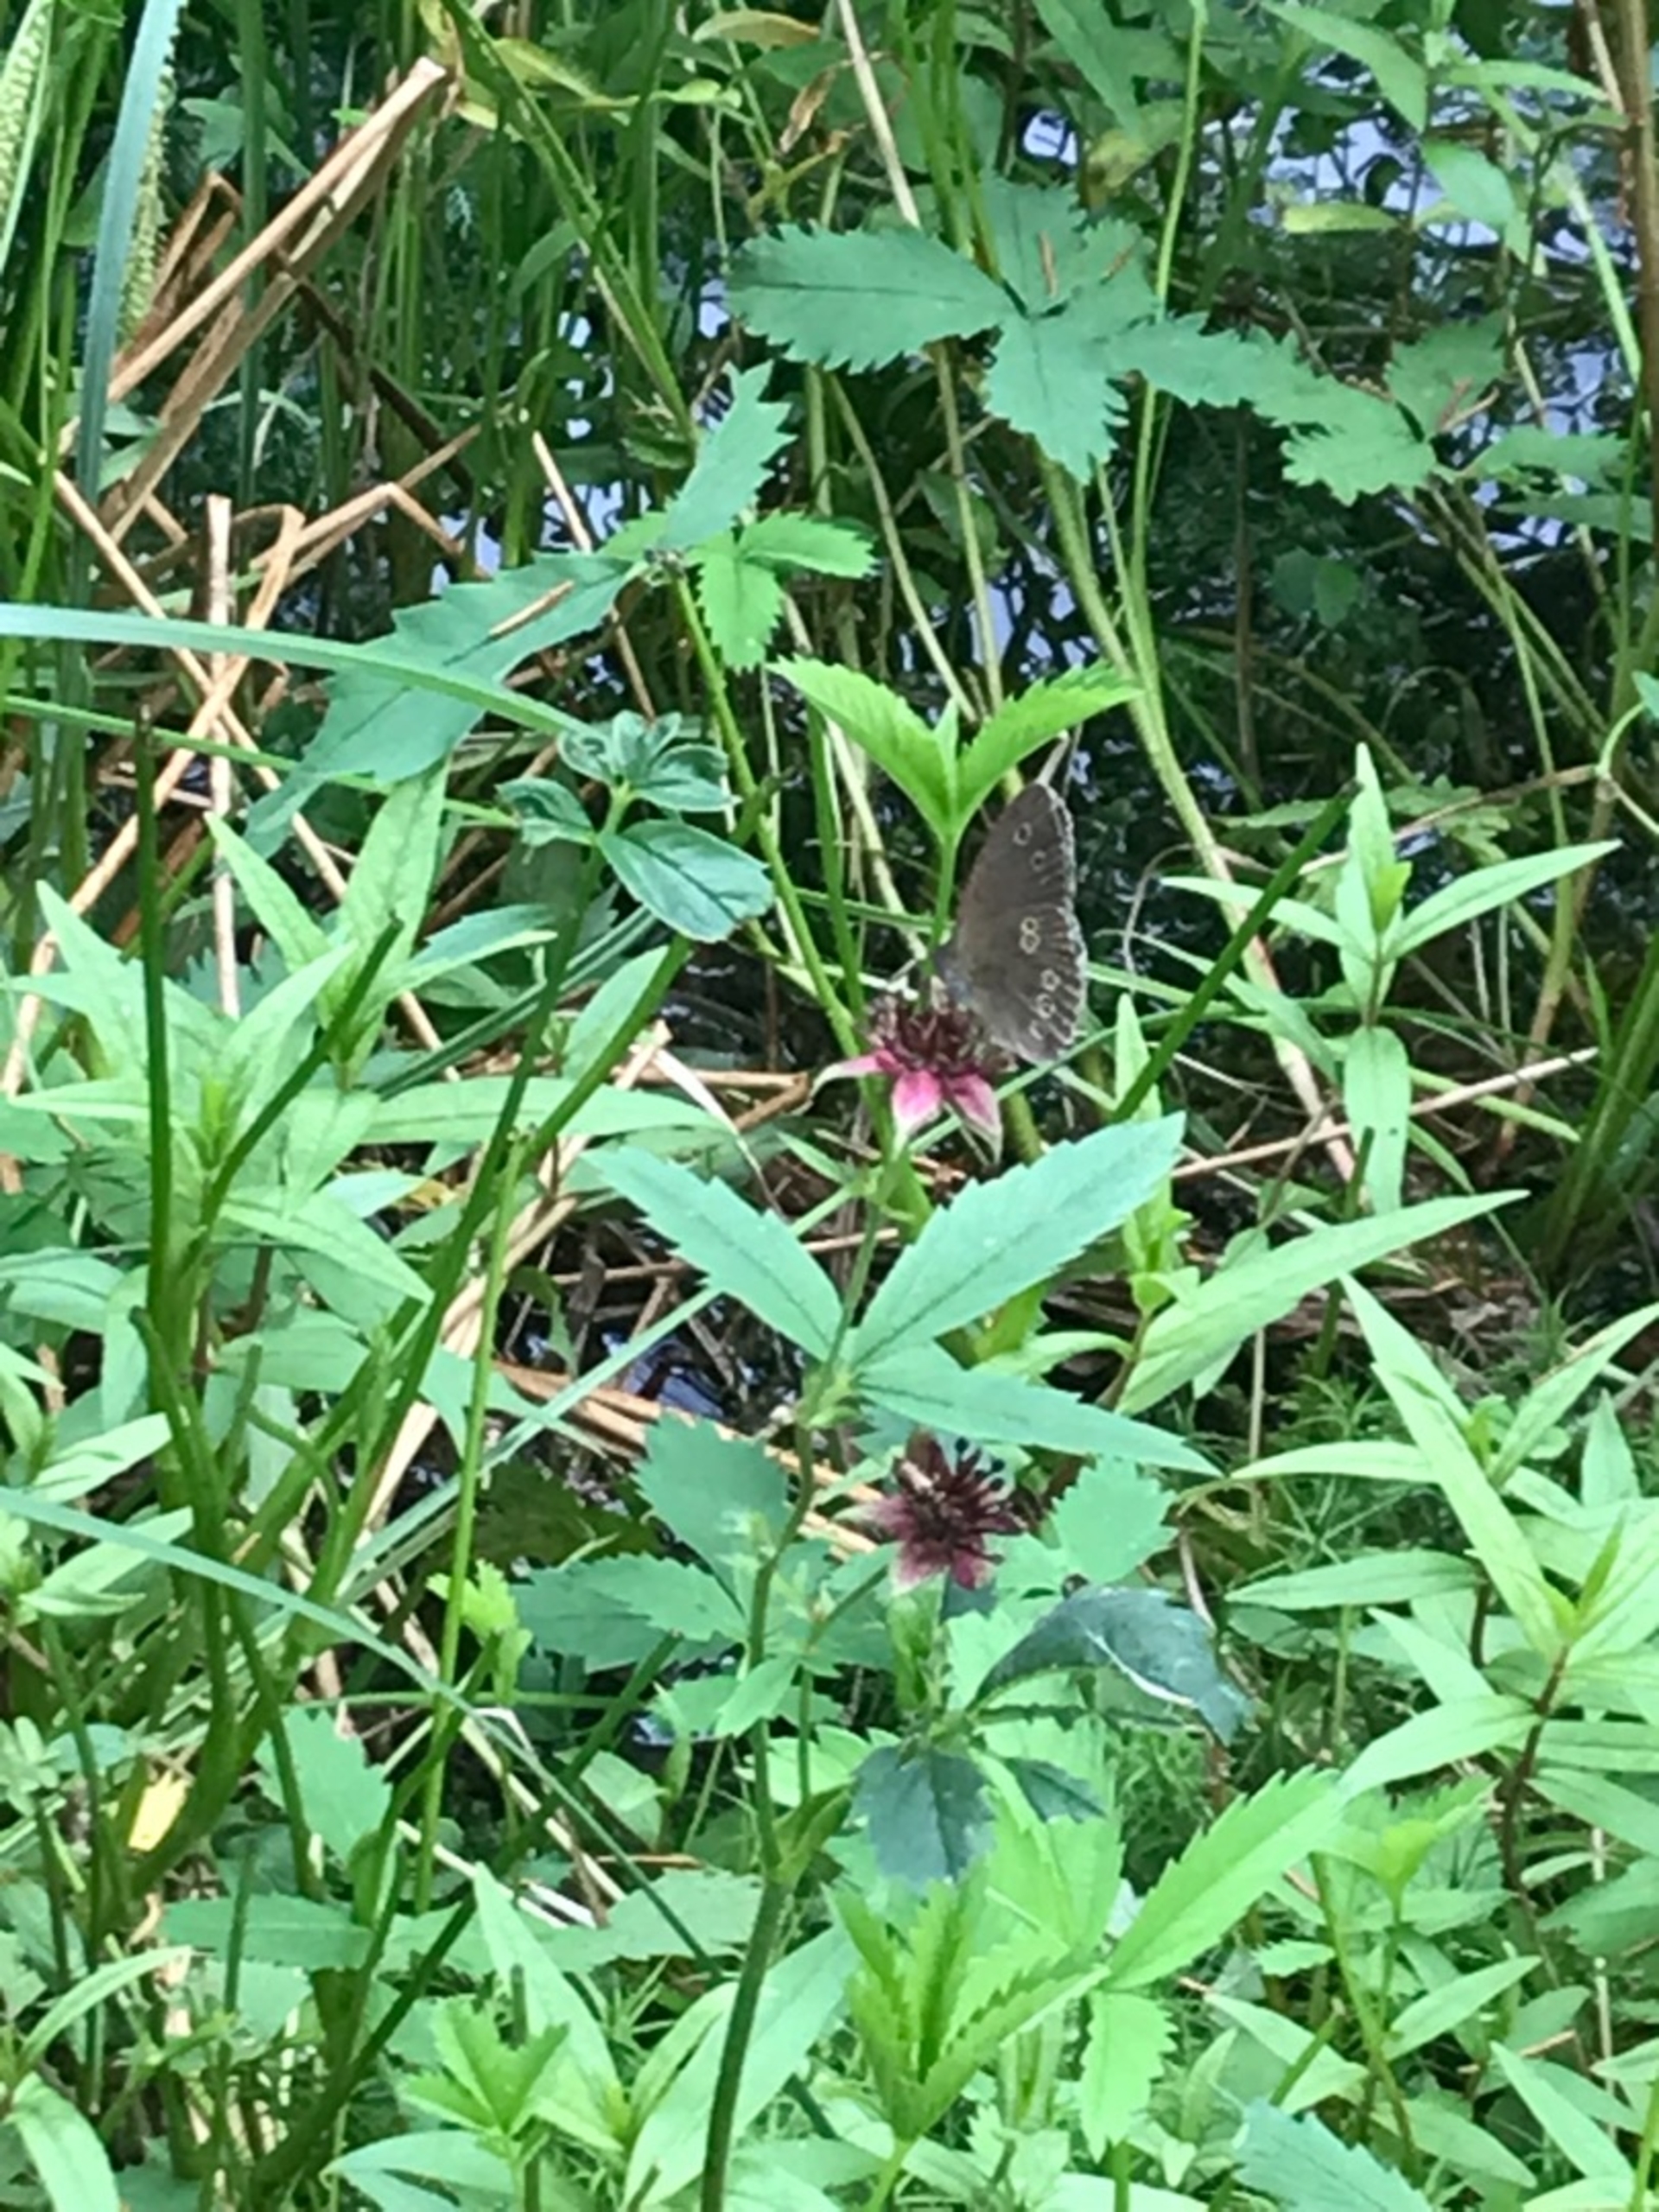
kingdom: Animalia
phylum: Arthropoda
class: Insecta
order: Lepidoptera
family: Nymphalidae
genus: Aphantopus
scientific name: Aphantopus hyperantus
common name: Engrandøje
